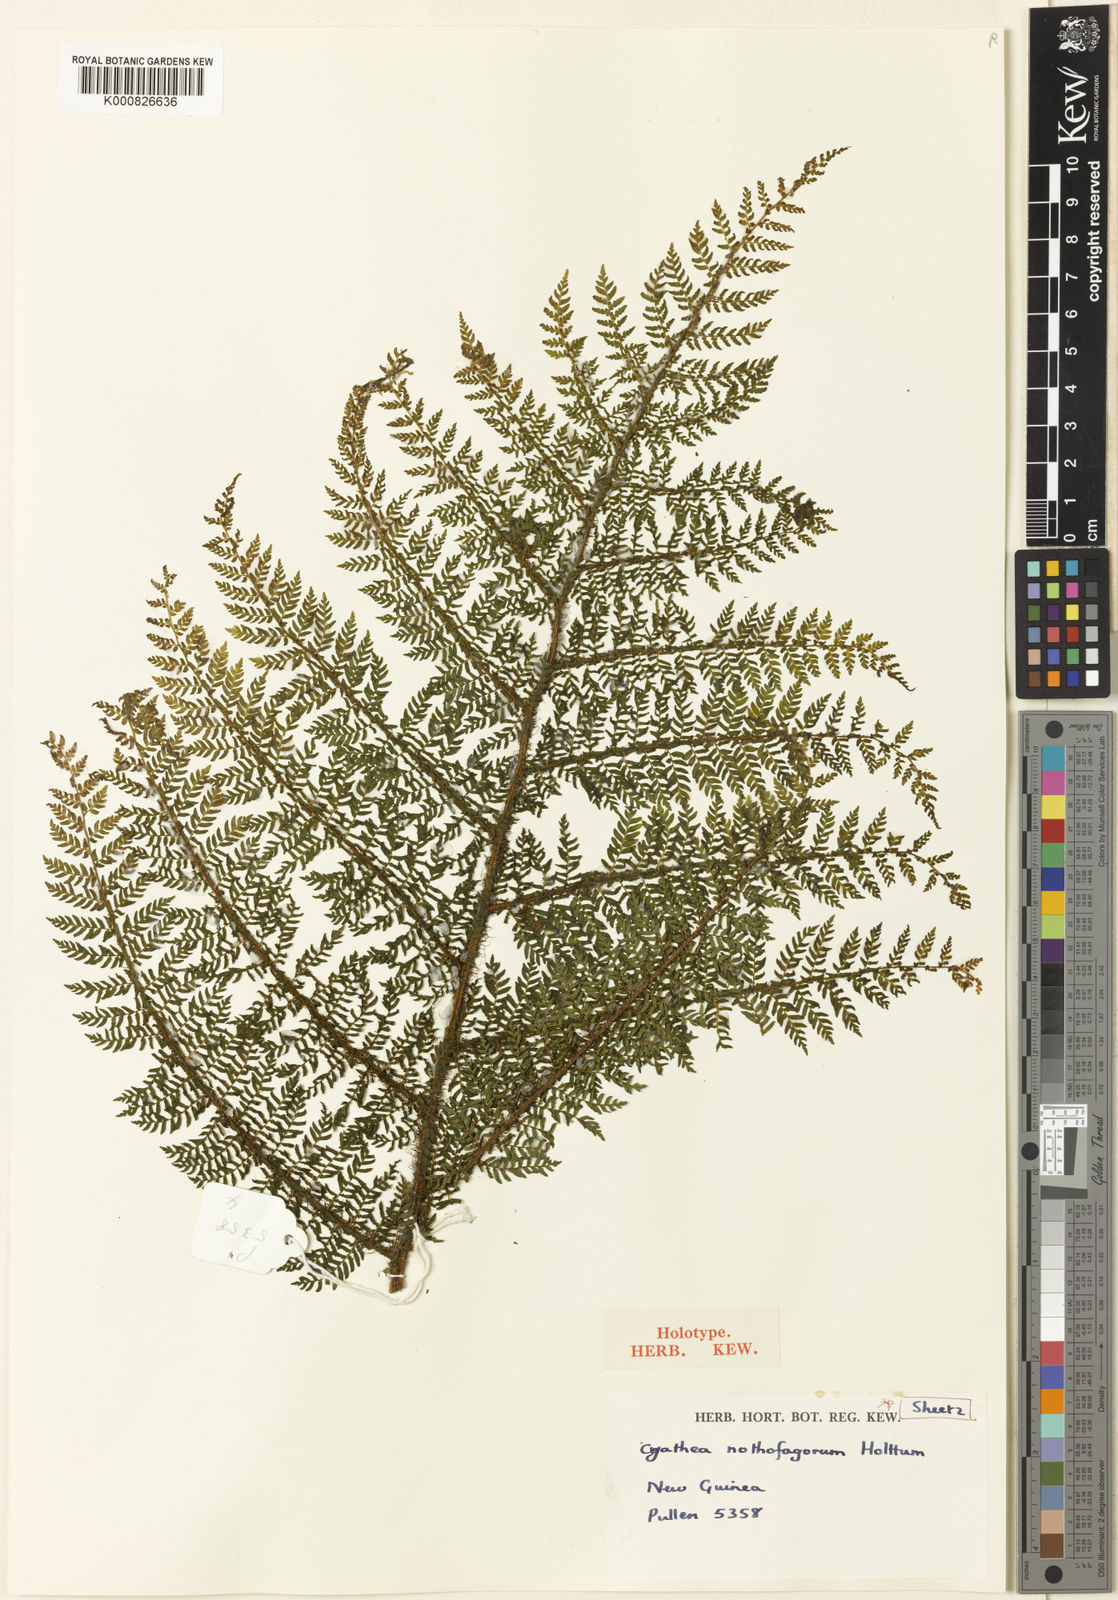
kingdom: Plantae
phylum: Tracheophyta
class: Polypodiopsida
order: Cyatheales
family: Cyatheaceae
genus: Alsophila
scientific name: Alsophila nothofagorum
